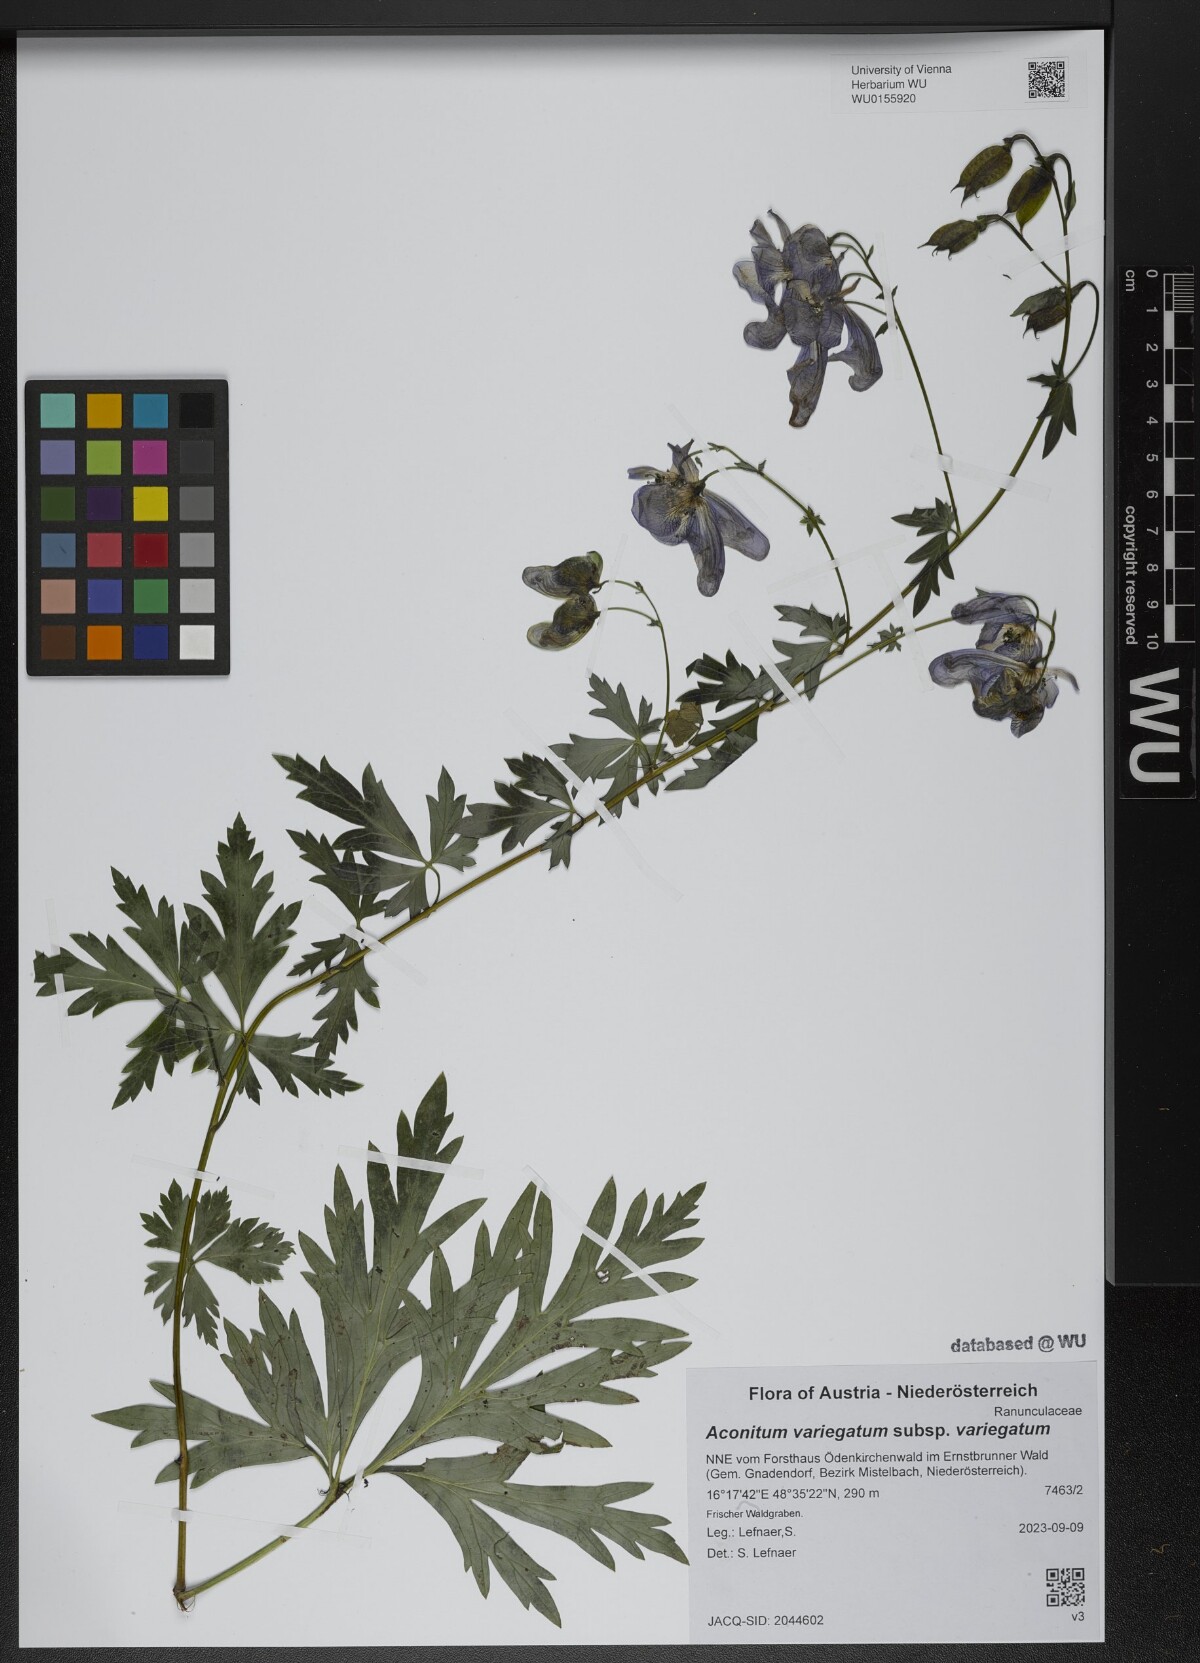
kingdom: Plantae
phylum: Tracheophyta
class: Magnoliopsida
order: Ranunculales
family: Ranunculaceae
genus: Aconitum
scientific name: Aconitum variegatum
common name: Manchurian monkshood
